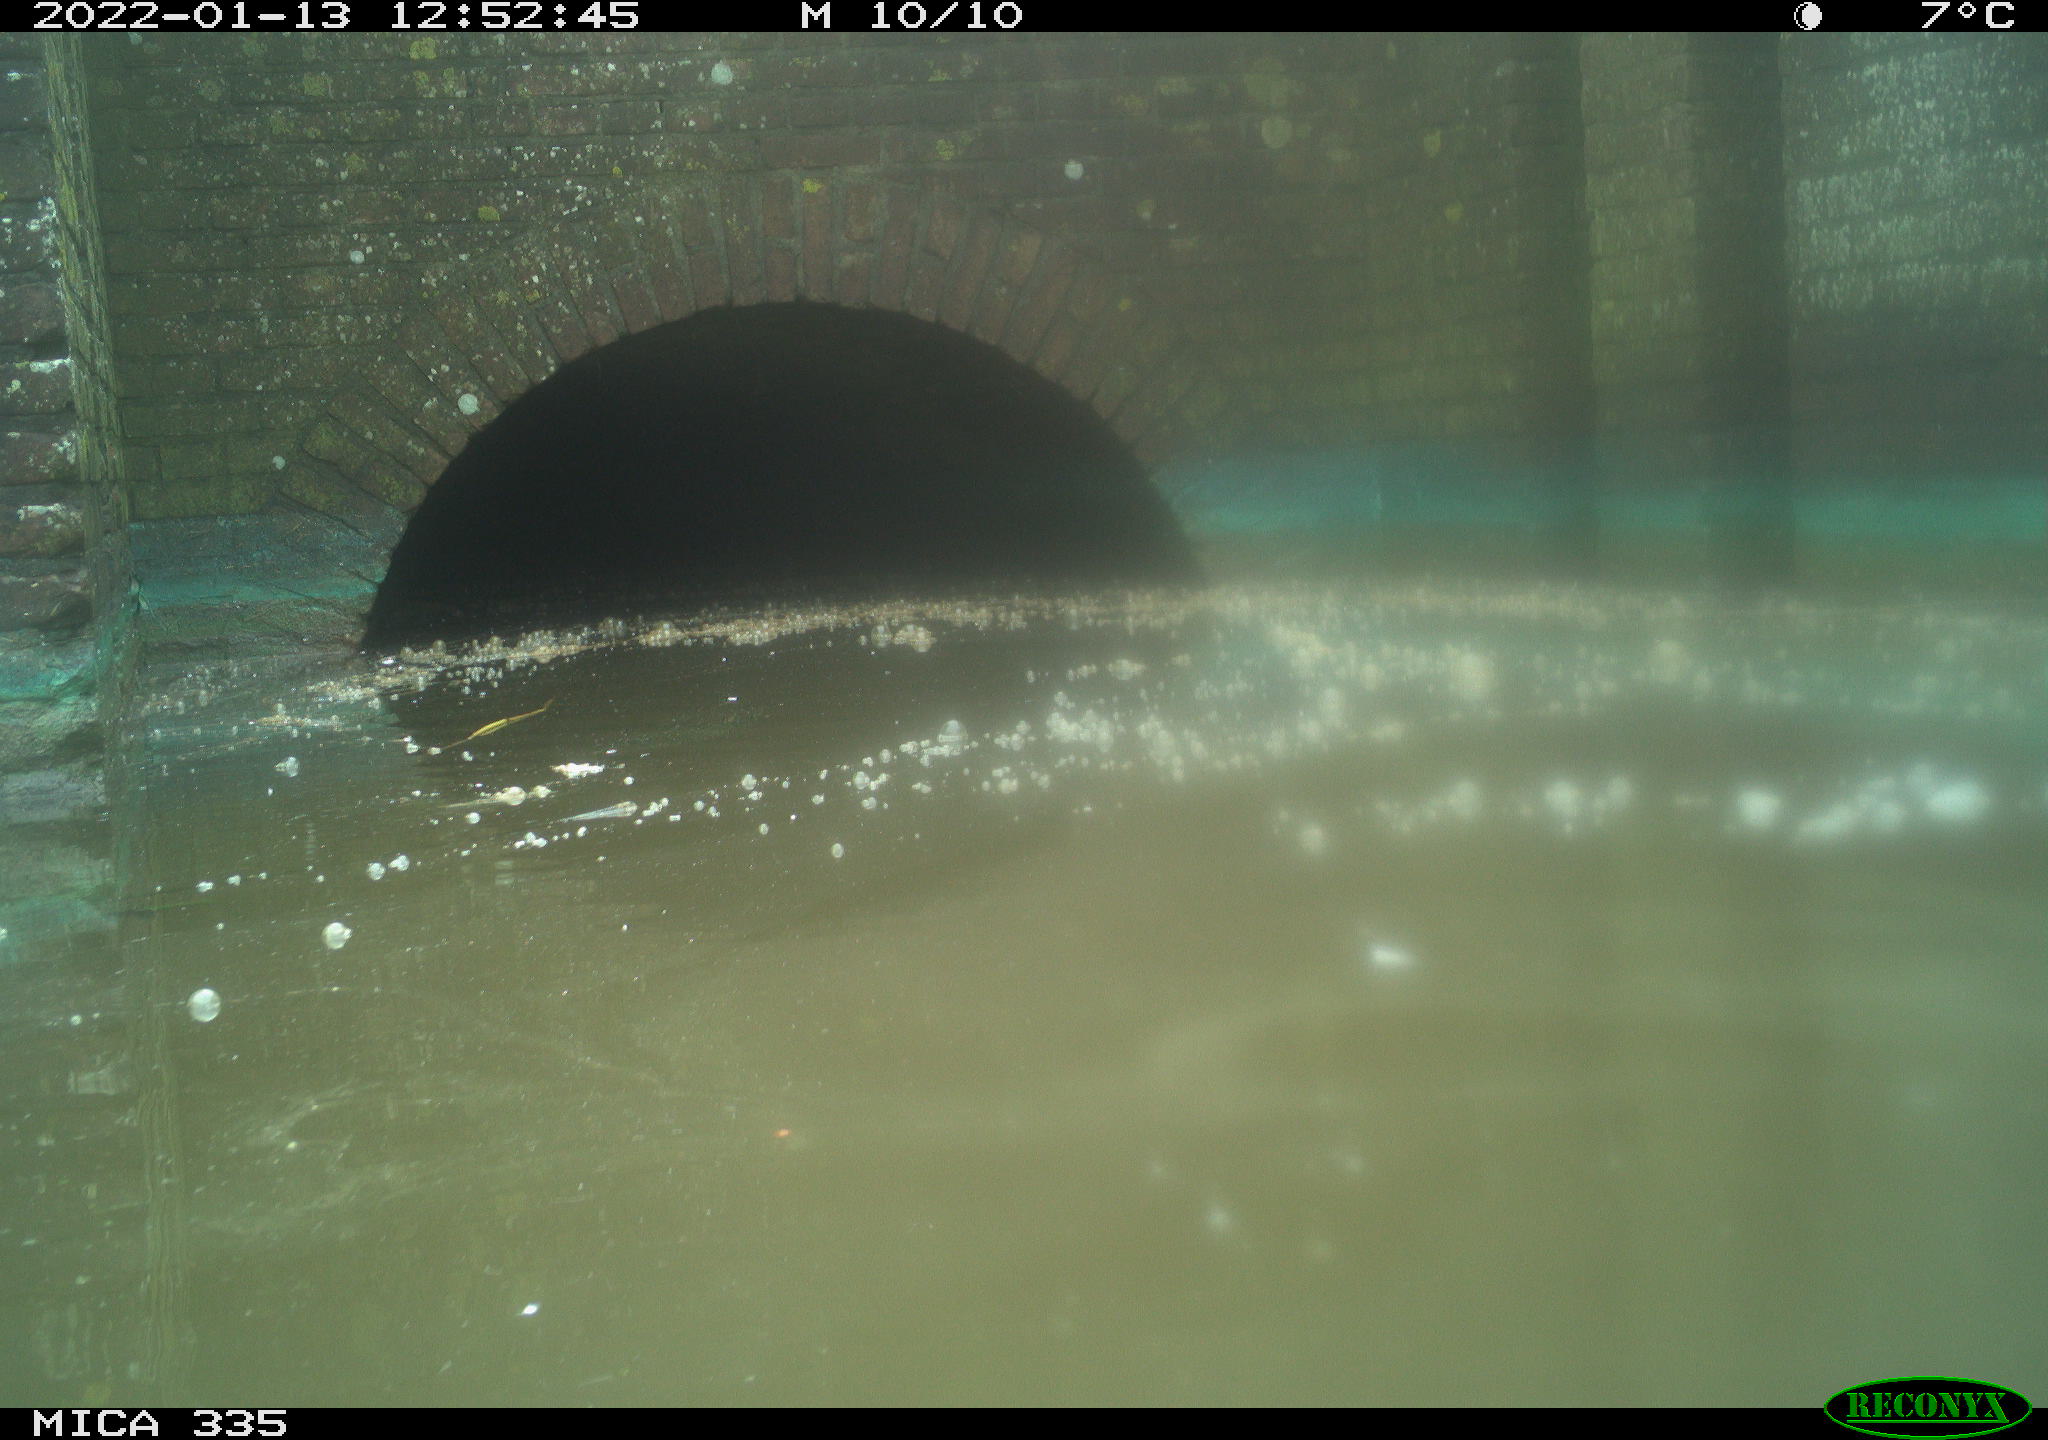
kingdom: Animalia
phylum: Chordata
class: Aves
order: Gruiformes
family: Rallidae
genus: Fulica
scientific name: Fulica atra
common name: Eurasian coot
